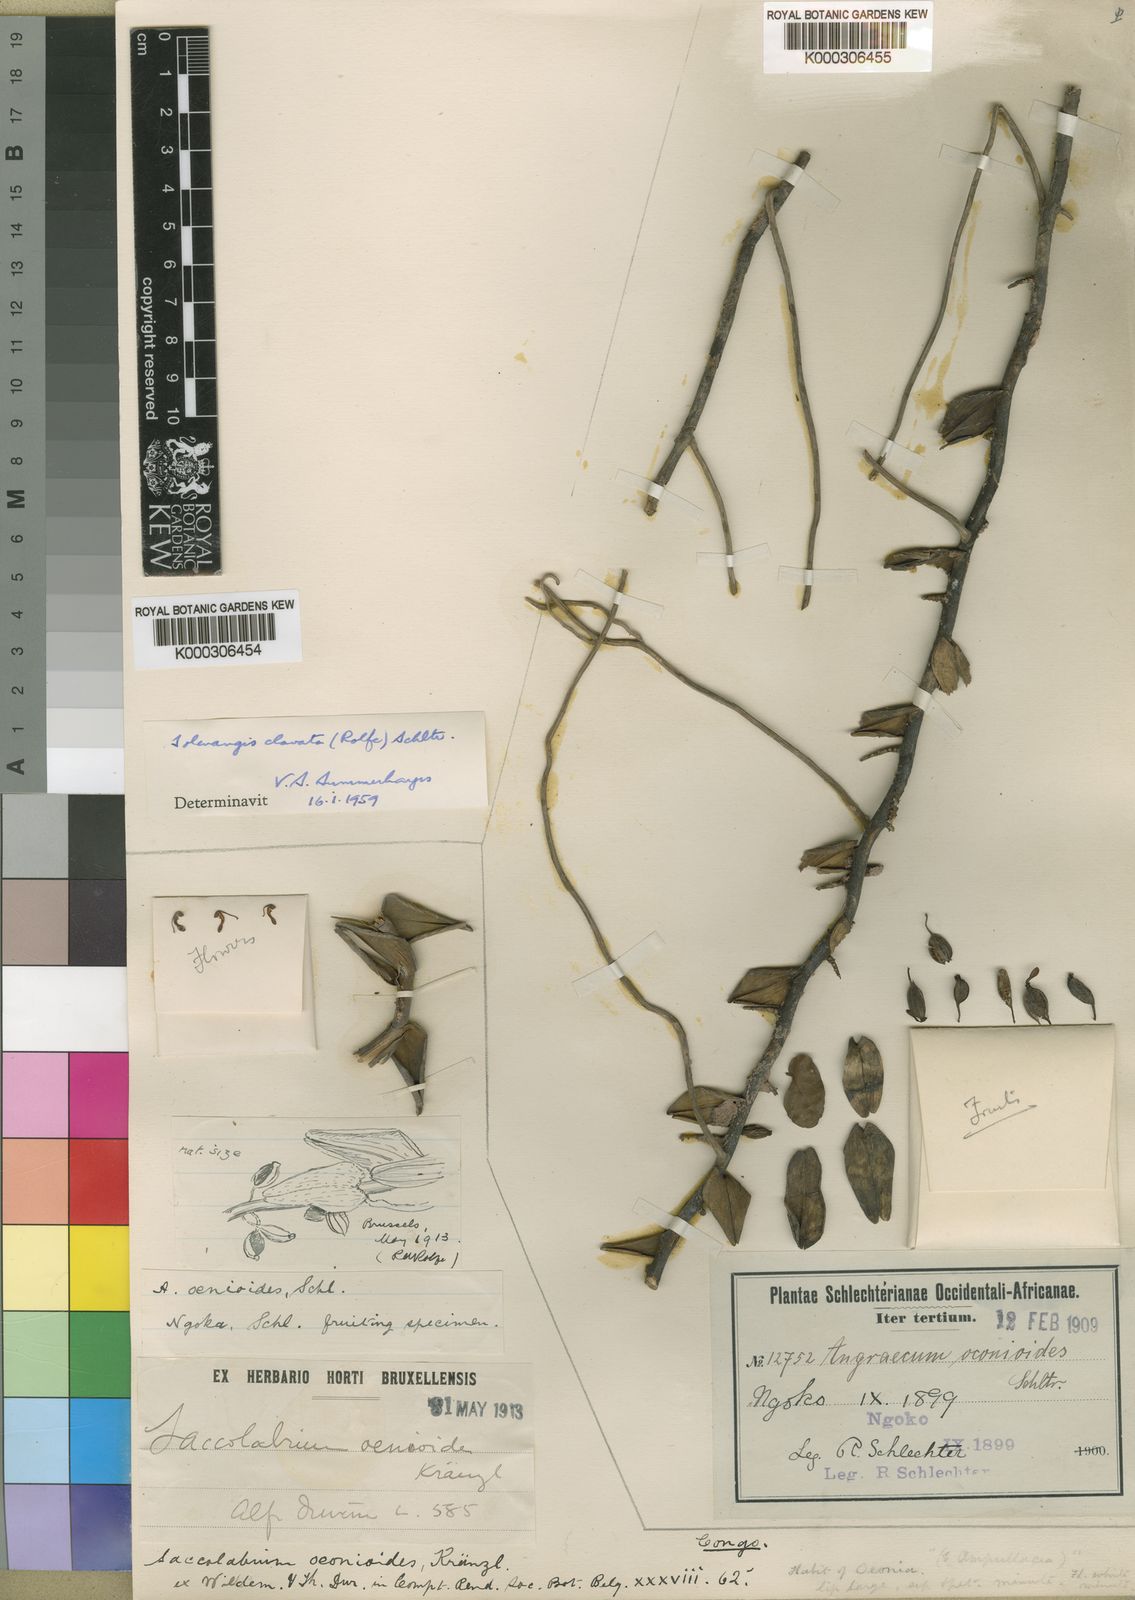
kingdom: Plantae
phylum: Tracheophyta
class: Liliopsida
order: Asparagales
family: Orchidaceae
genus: Solenangis
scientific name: Solenangis clavata
